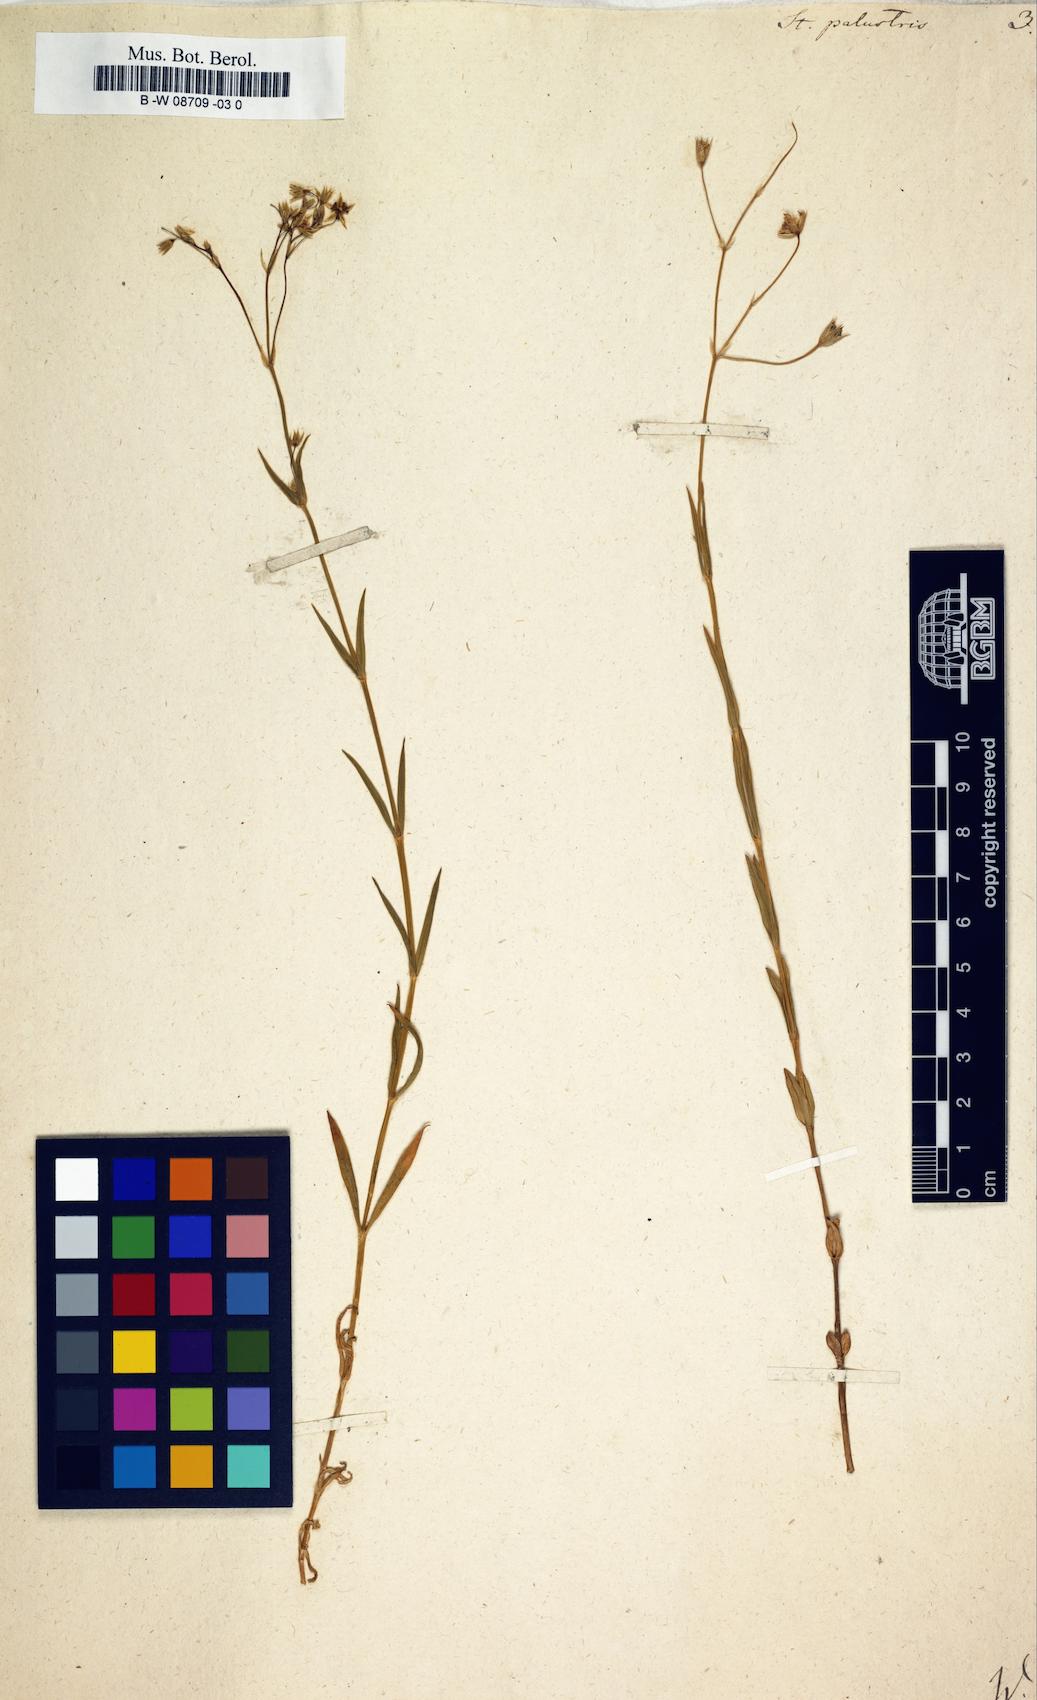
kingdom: Plantae
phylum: Tracheophyta
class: Magnoliopsida
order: Caryophyllales
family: Caryophyllaceae
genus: Stellaria
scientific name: Stellaria palustris
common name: Marsh stitchwort
